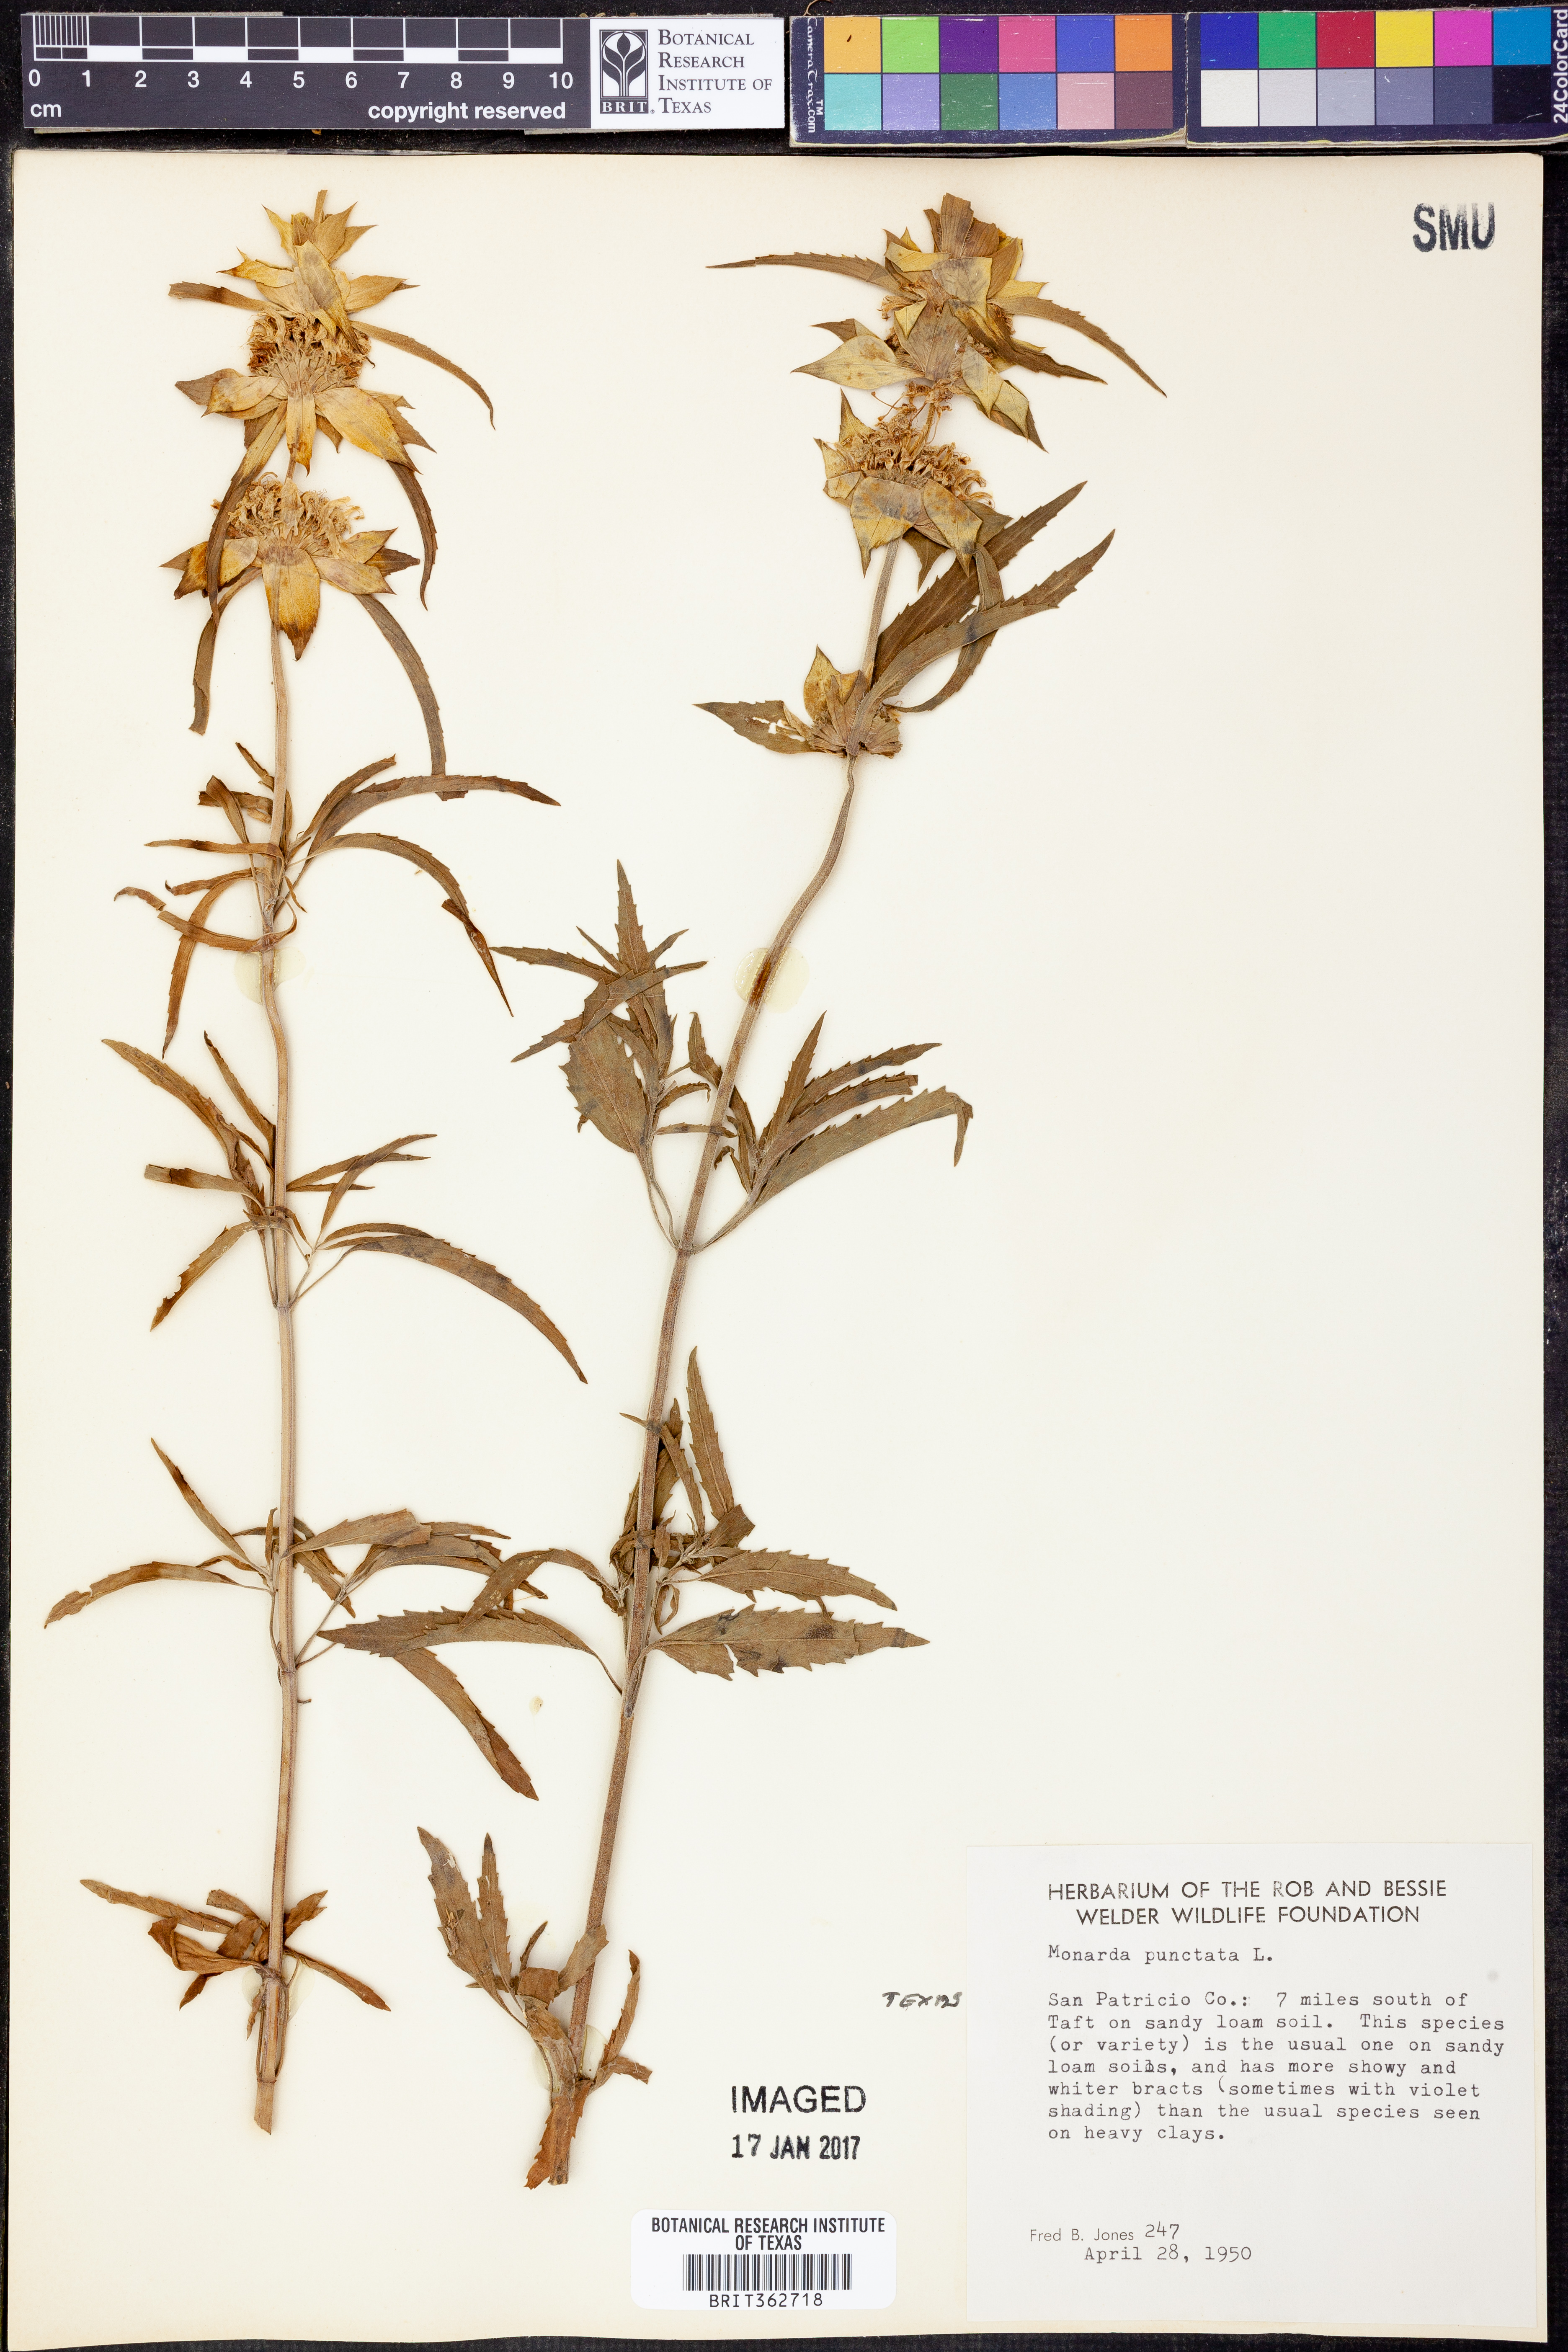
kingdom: Plantae
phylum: Tracheophyta
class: Magnoliopsida
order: Lamiales
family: Lamiaceae
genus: Monarda
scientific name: Monarda punctata
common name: Dotted monarda
